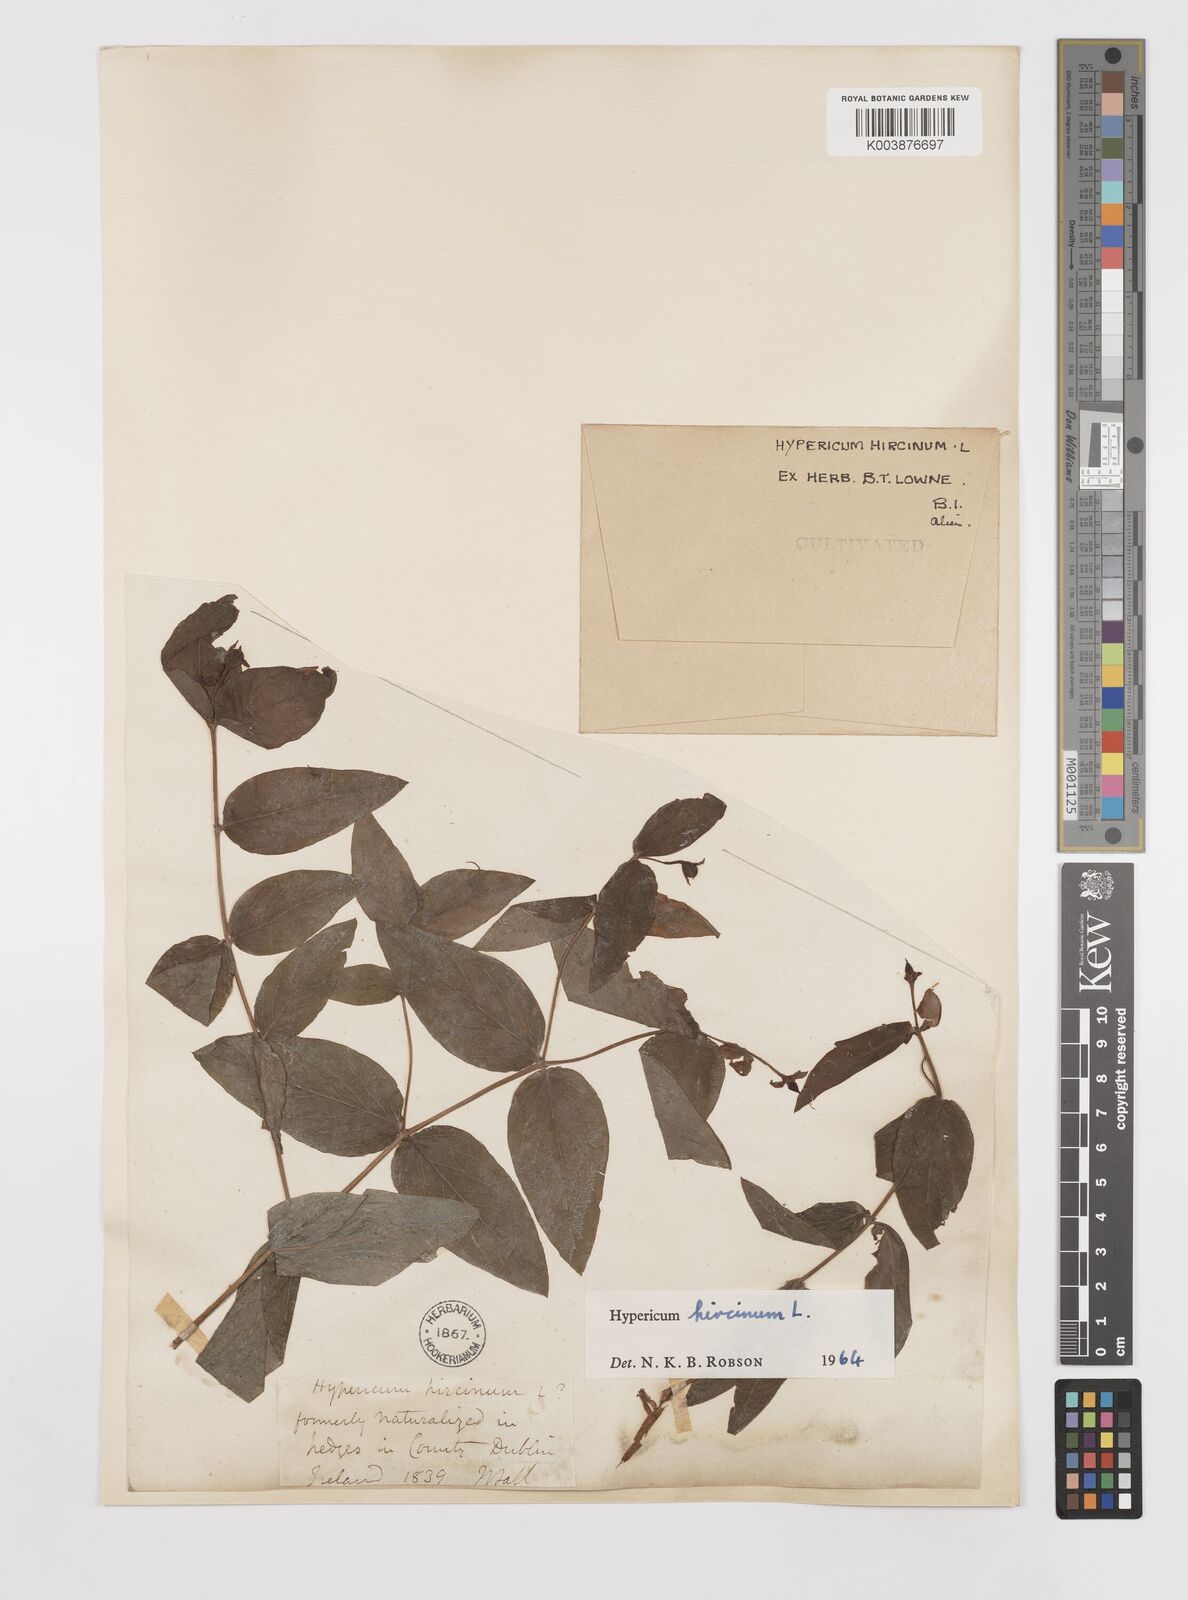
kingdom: Plantae
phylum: Tracheophyta
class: Magnoliopsida
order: Malpighiales
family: Hypericaceae
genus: Hypericum
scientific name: Hypericum hircinum
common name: Stinking tutsan
